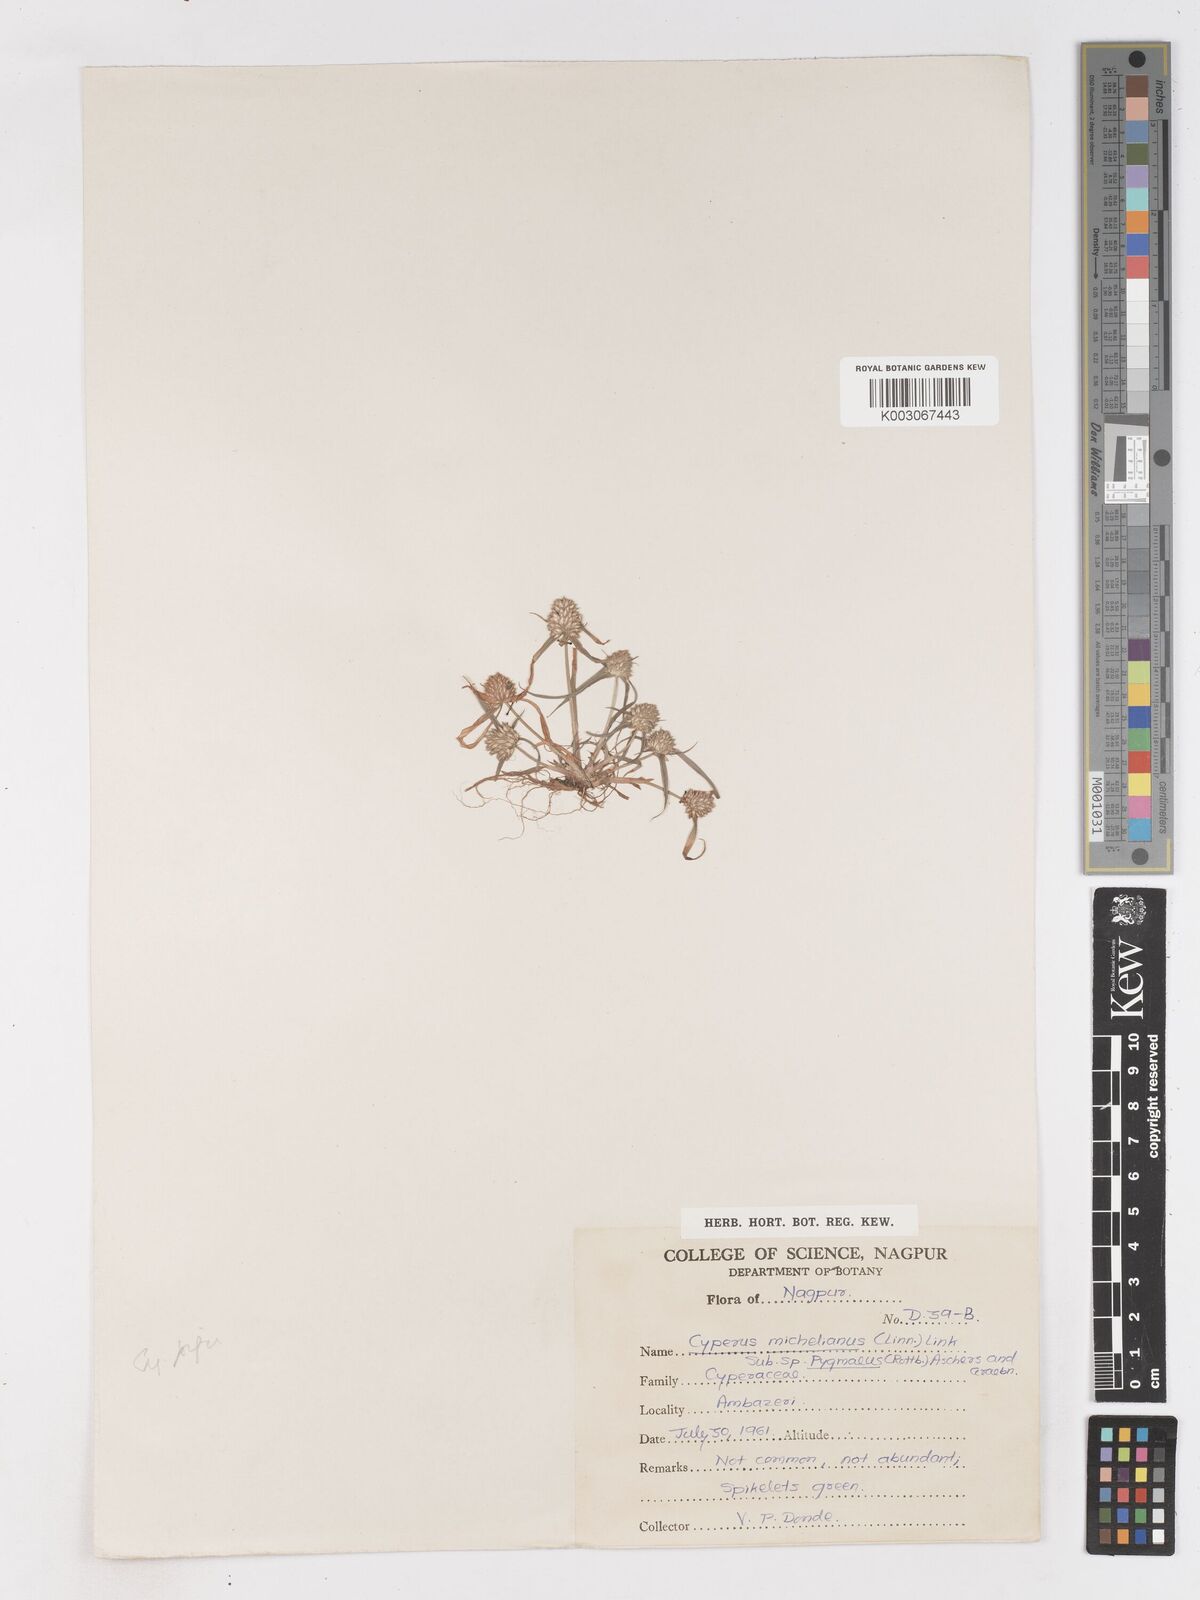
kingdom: Plantae
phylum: Tracheophyta
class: Liliopsida
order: Poales
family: Cyperaceae
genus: Cyperus
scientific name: Cyperus michelianus
